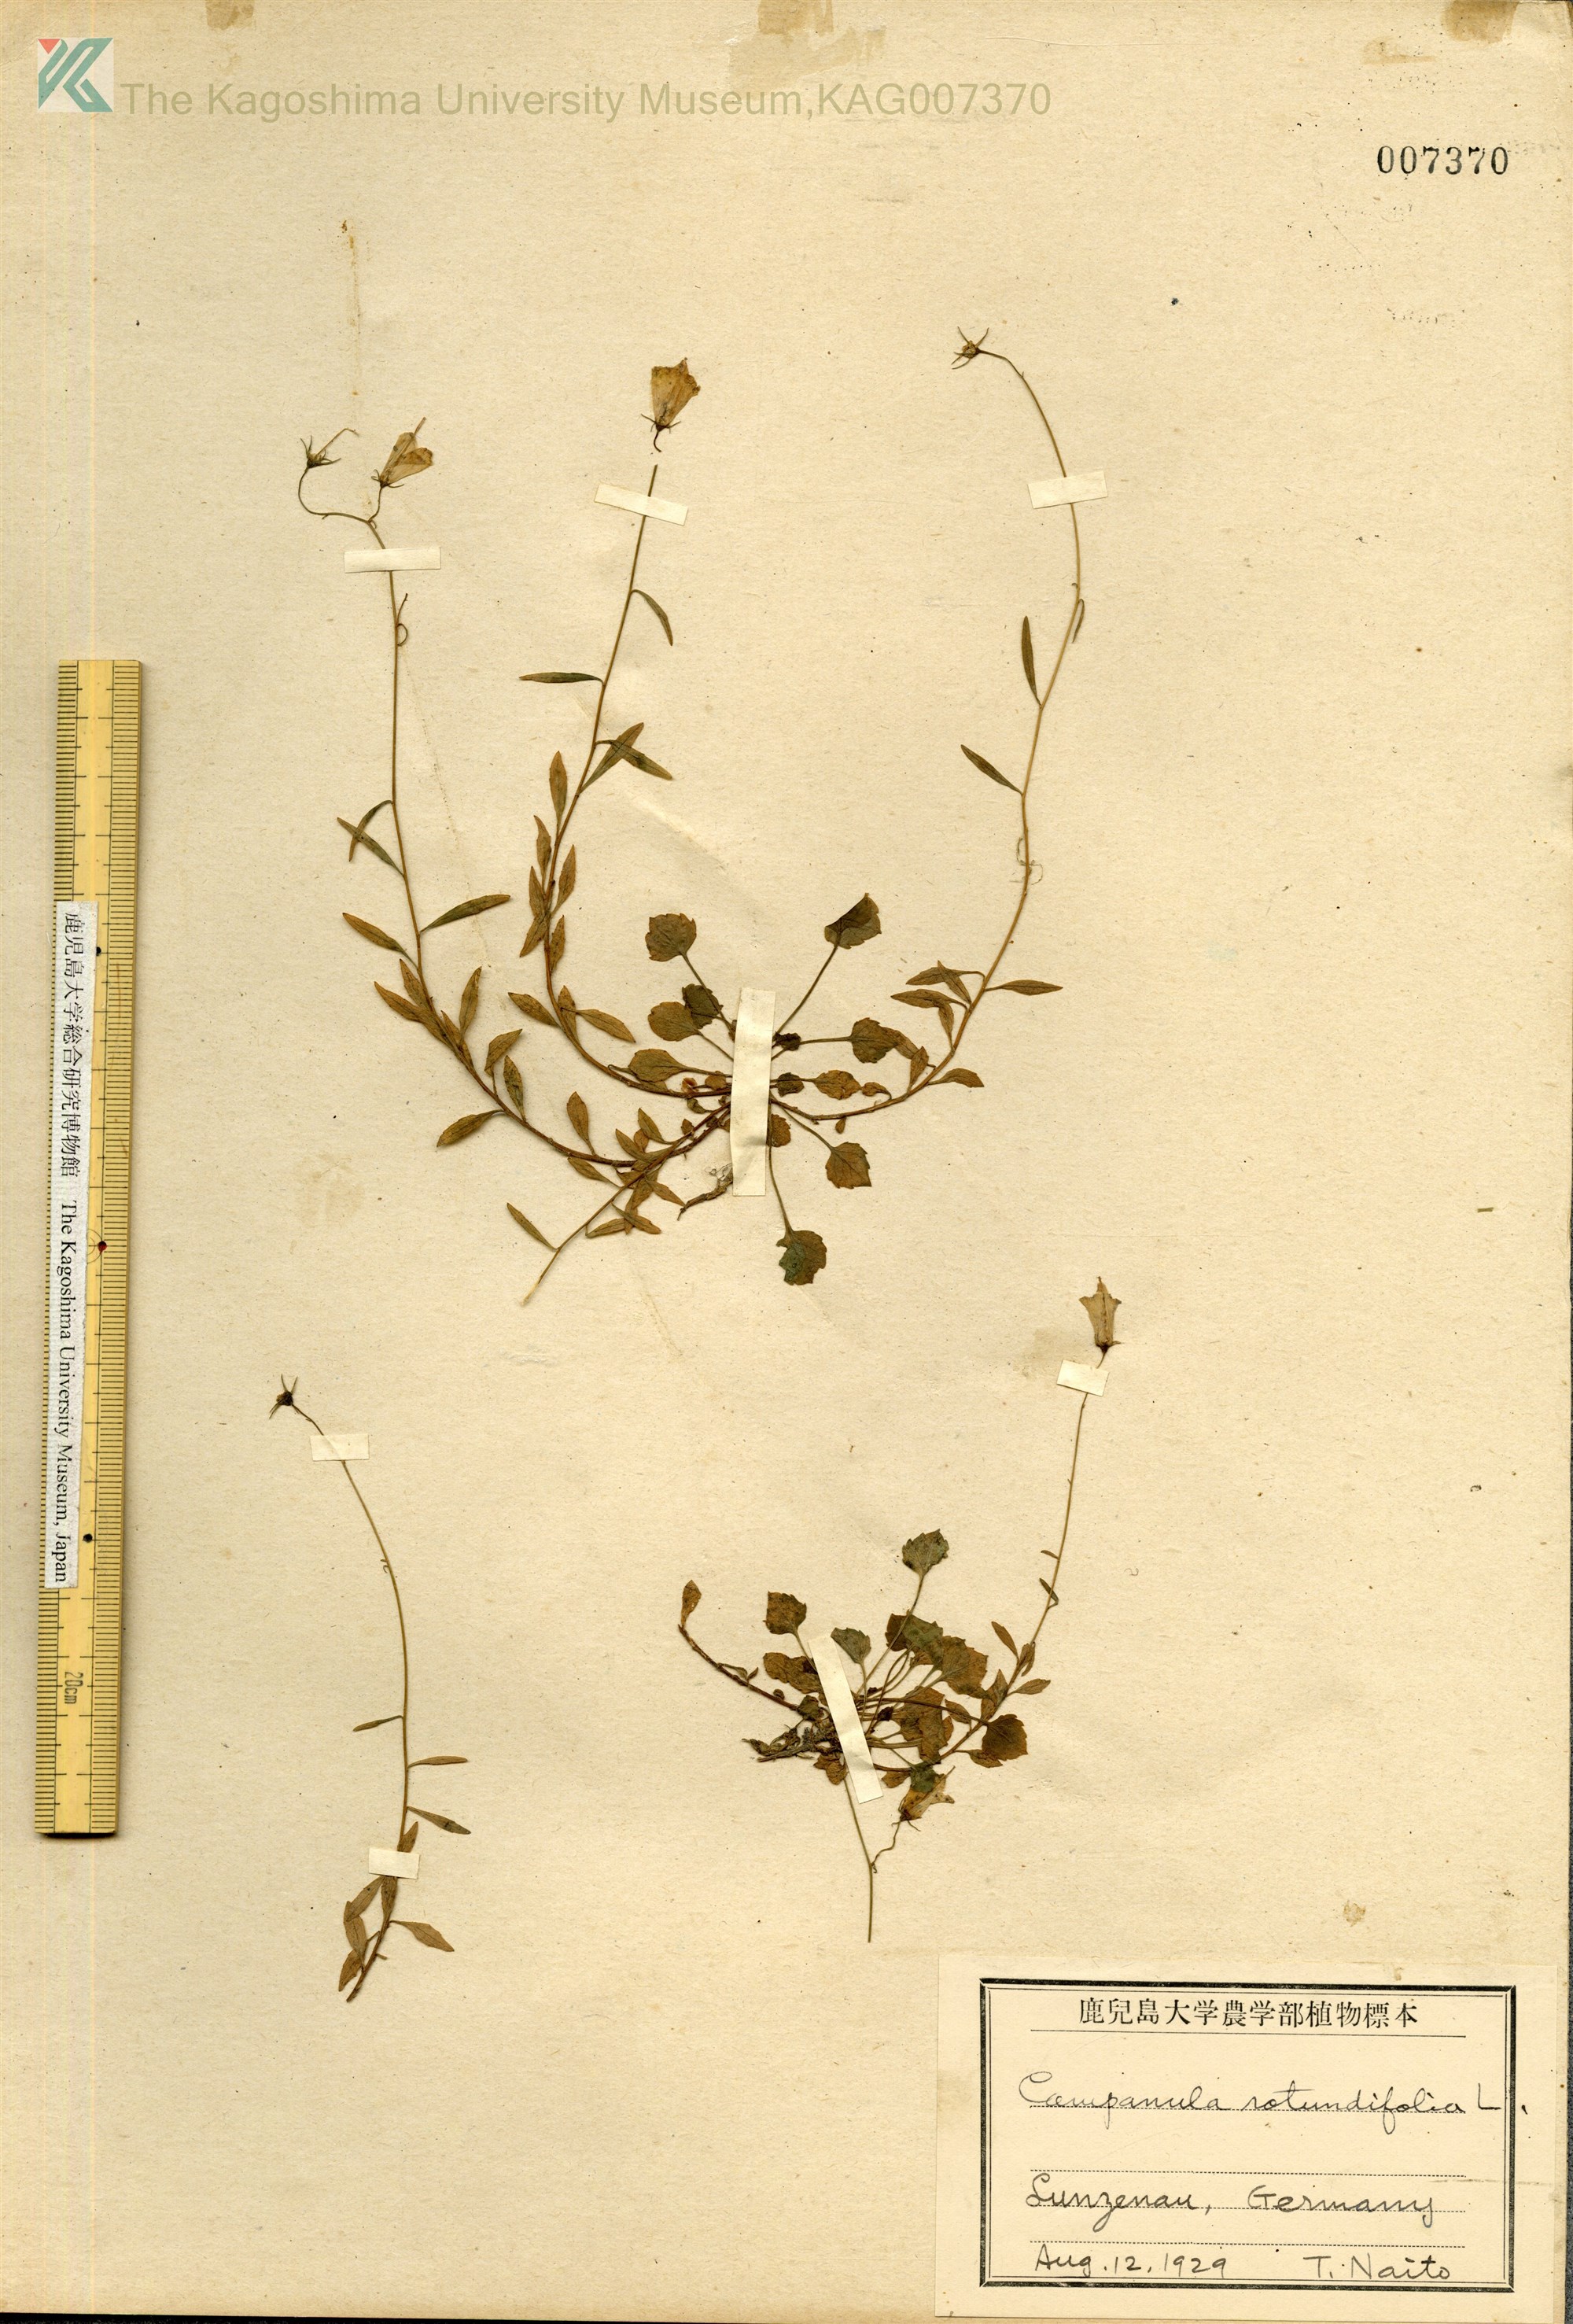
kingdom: Plantae
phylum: Tracheophyta
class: Magnoliopsida
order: Asterales
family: Campanulaceae
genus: Campanula
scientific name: Campanula rotundifolia
